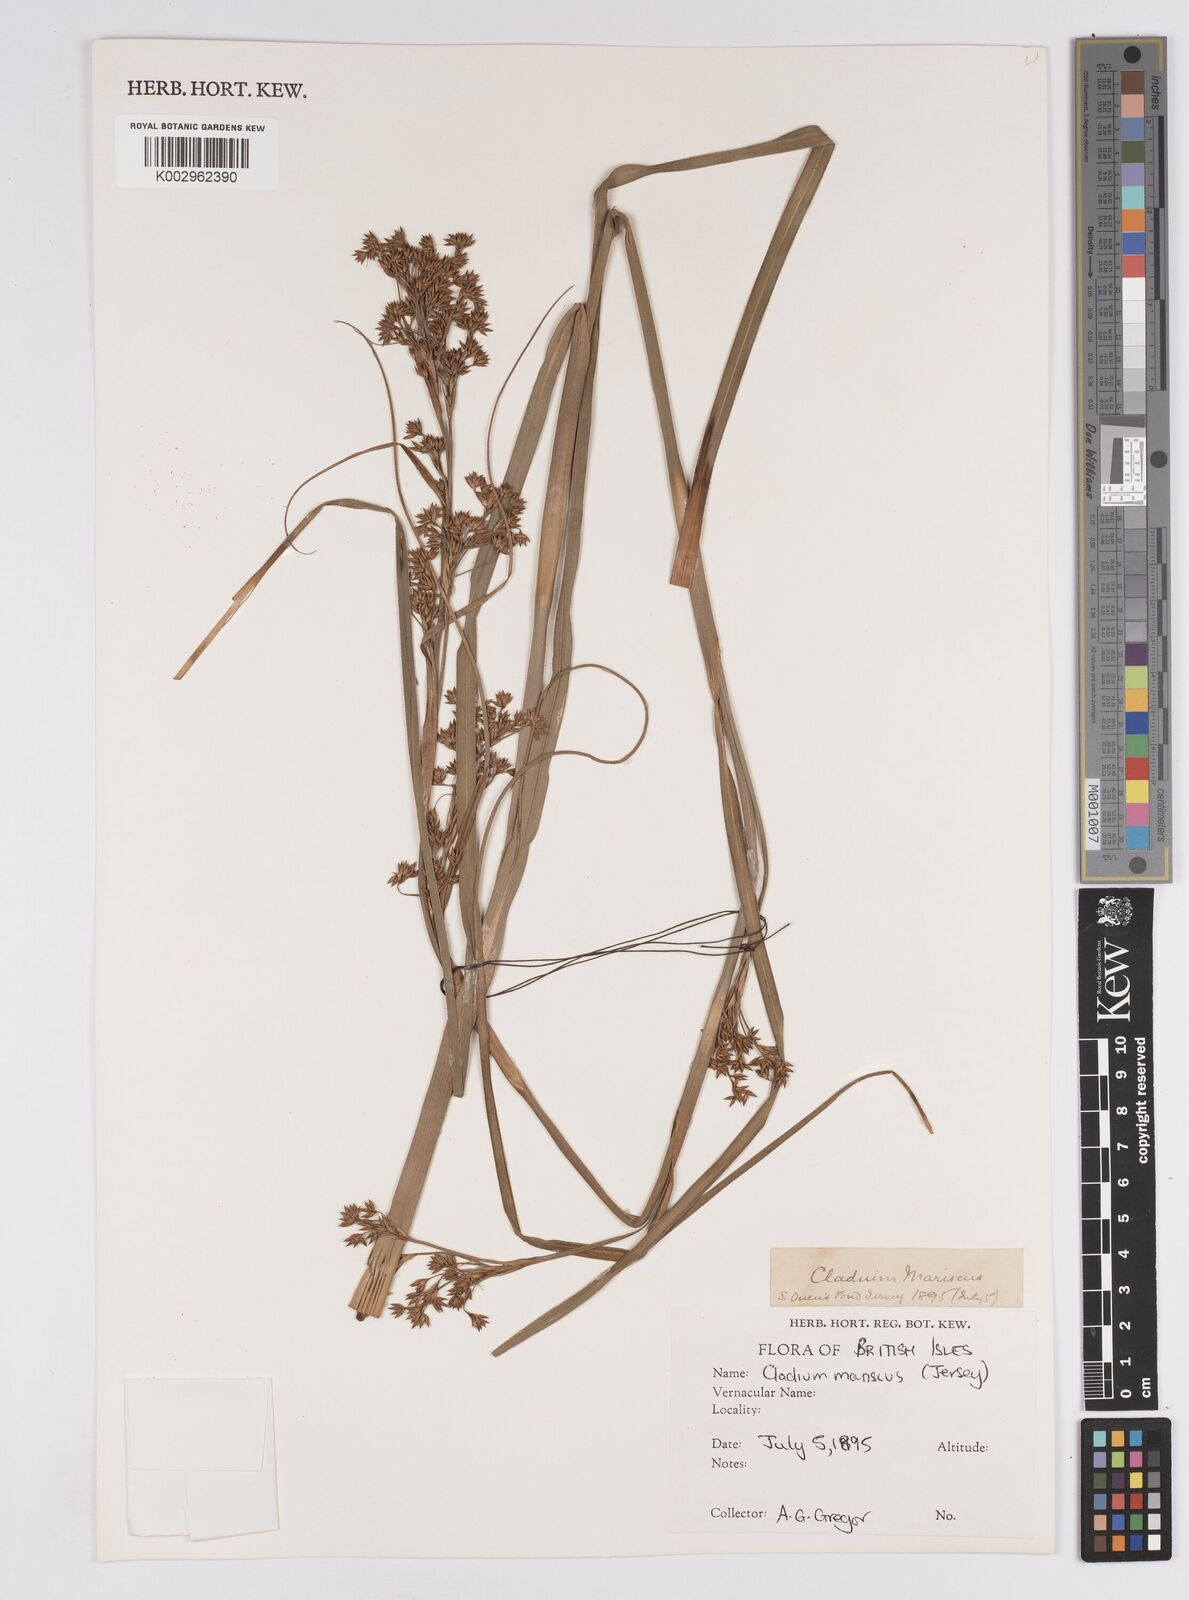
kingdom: Plantae
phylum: Tracheophyta
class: Liliopsida
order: Poales
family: Cyperaceae
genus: Cladium
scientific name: Cladium mariscus
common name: Great fen-sedge
